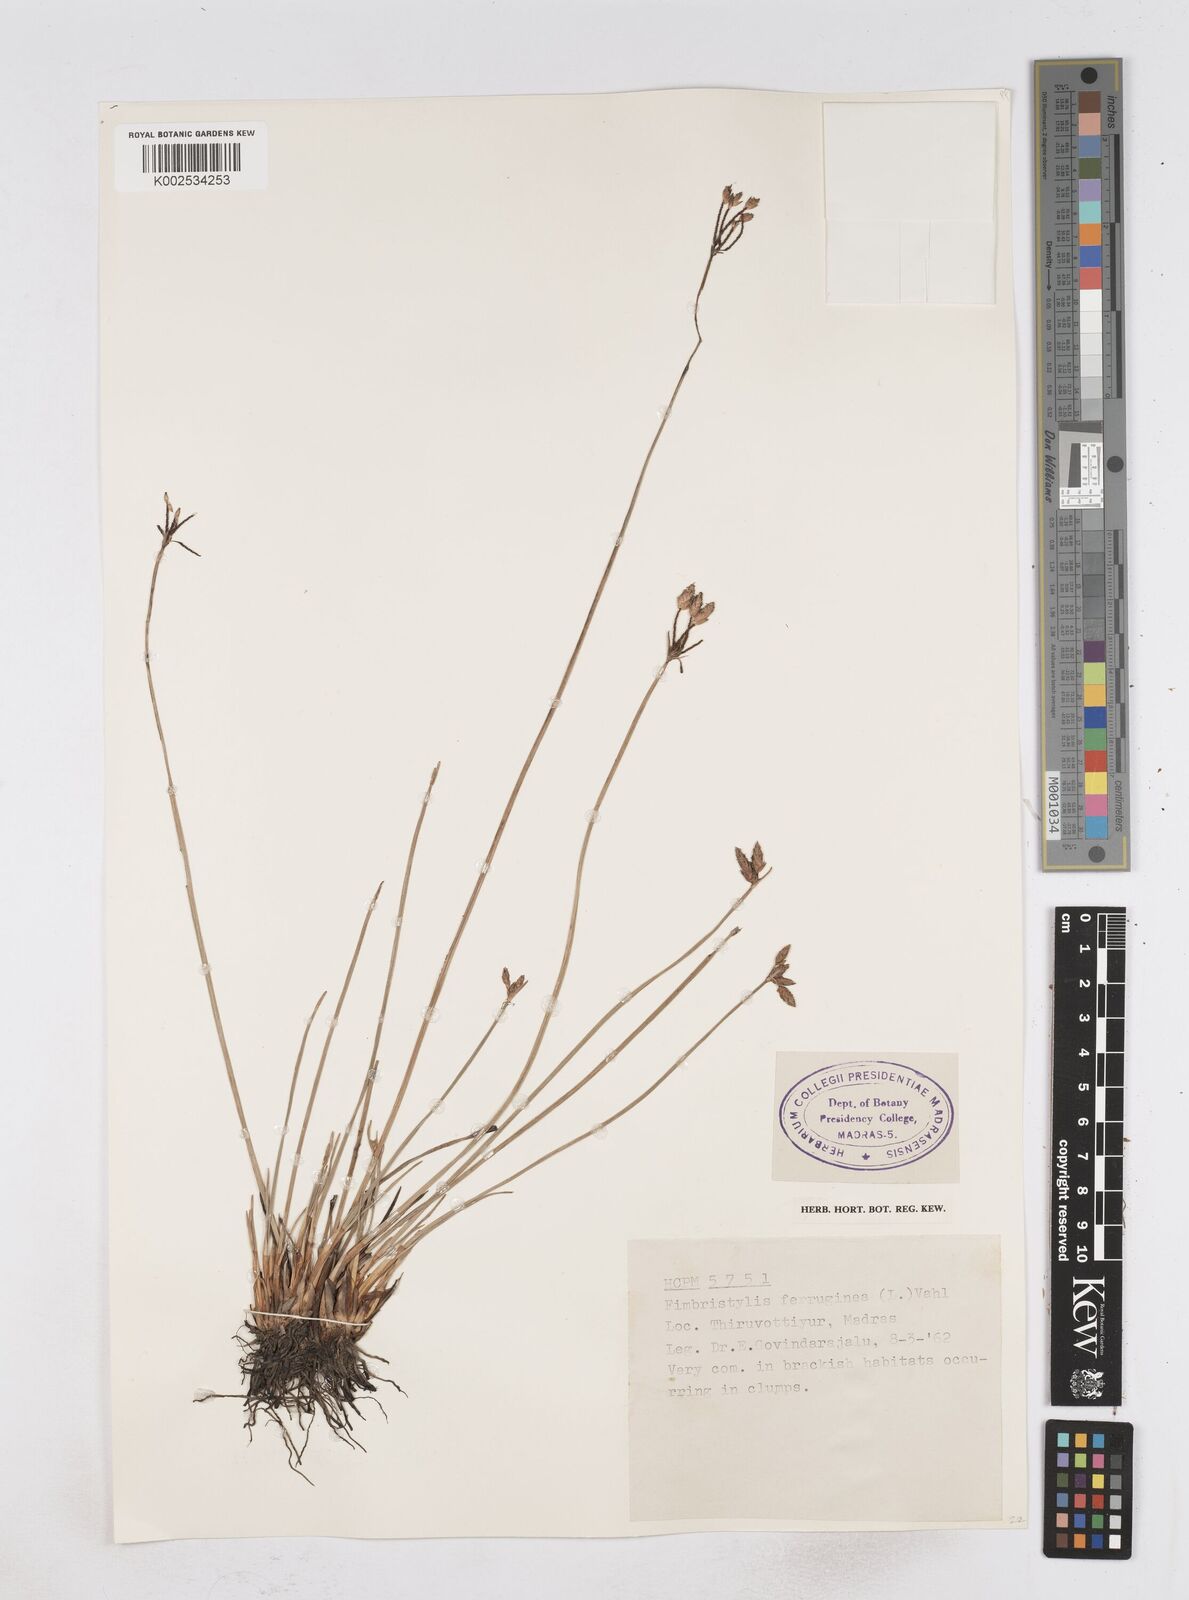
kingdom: Plantae
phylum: Tracheophyta
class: Liliopsida
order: Poales
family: Cyperaceae
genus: Fimbristylis
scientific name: Fimbristylis ferruginea
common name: West indian fimbry
